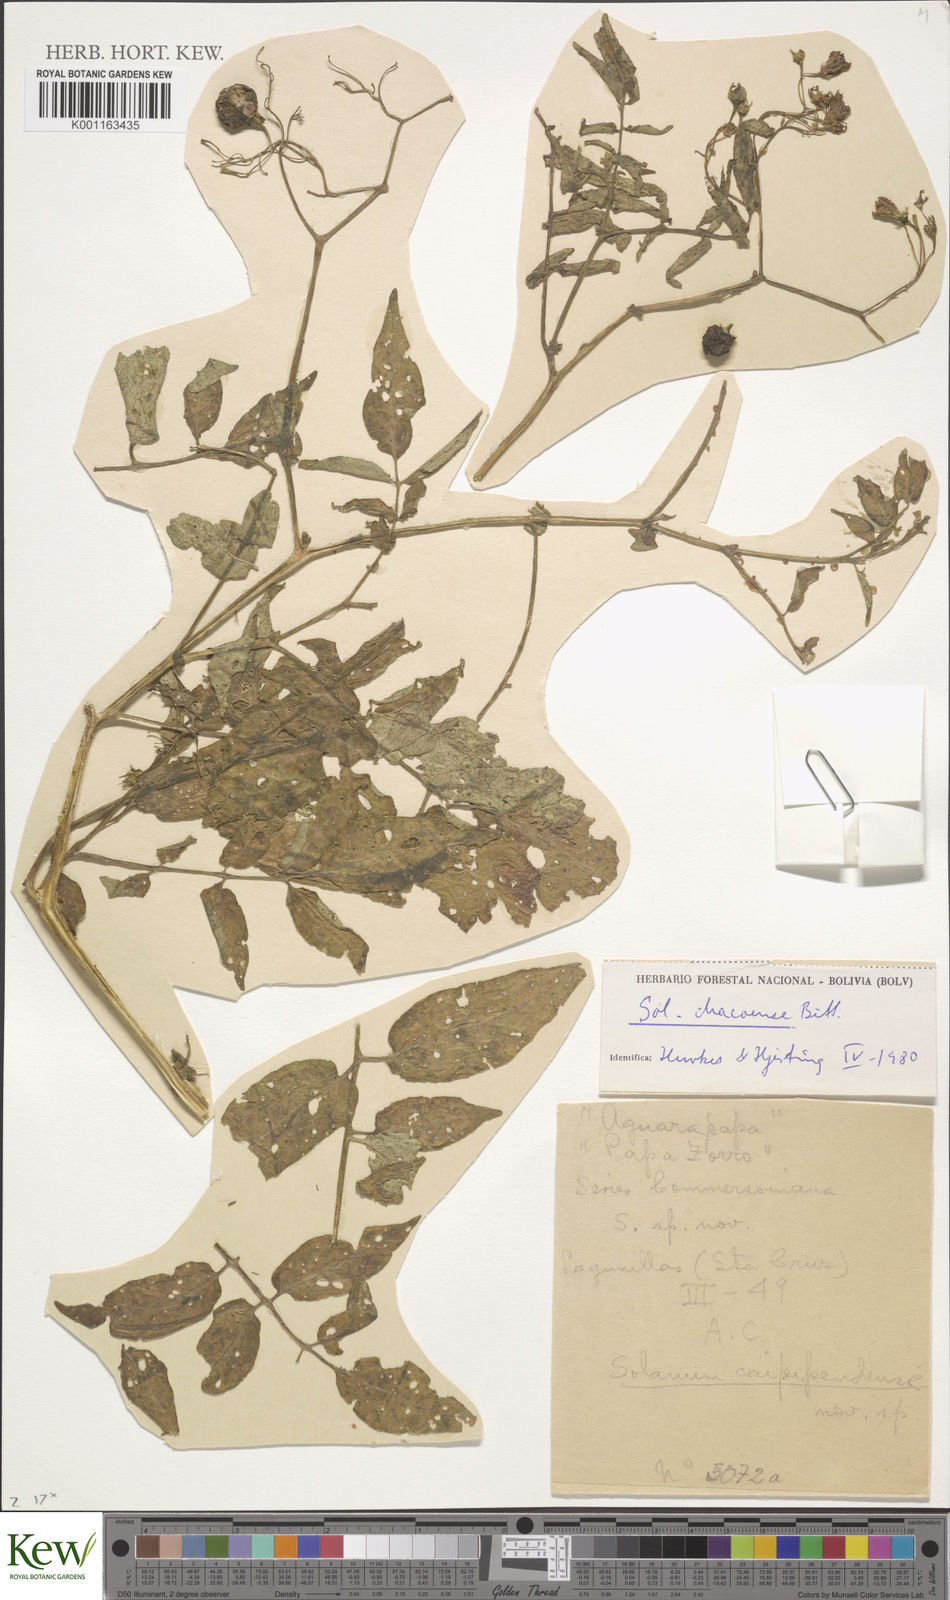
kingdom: Plantae
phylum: Tracheophyta
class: Magnoliopsida
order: Solanales
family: Solanaceae
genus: Solanum
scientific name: Solanum chacoense
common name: Chaco potato
